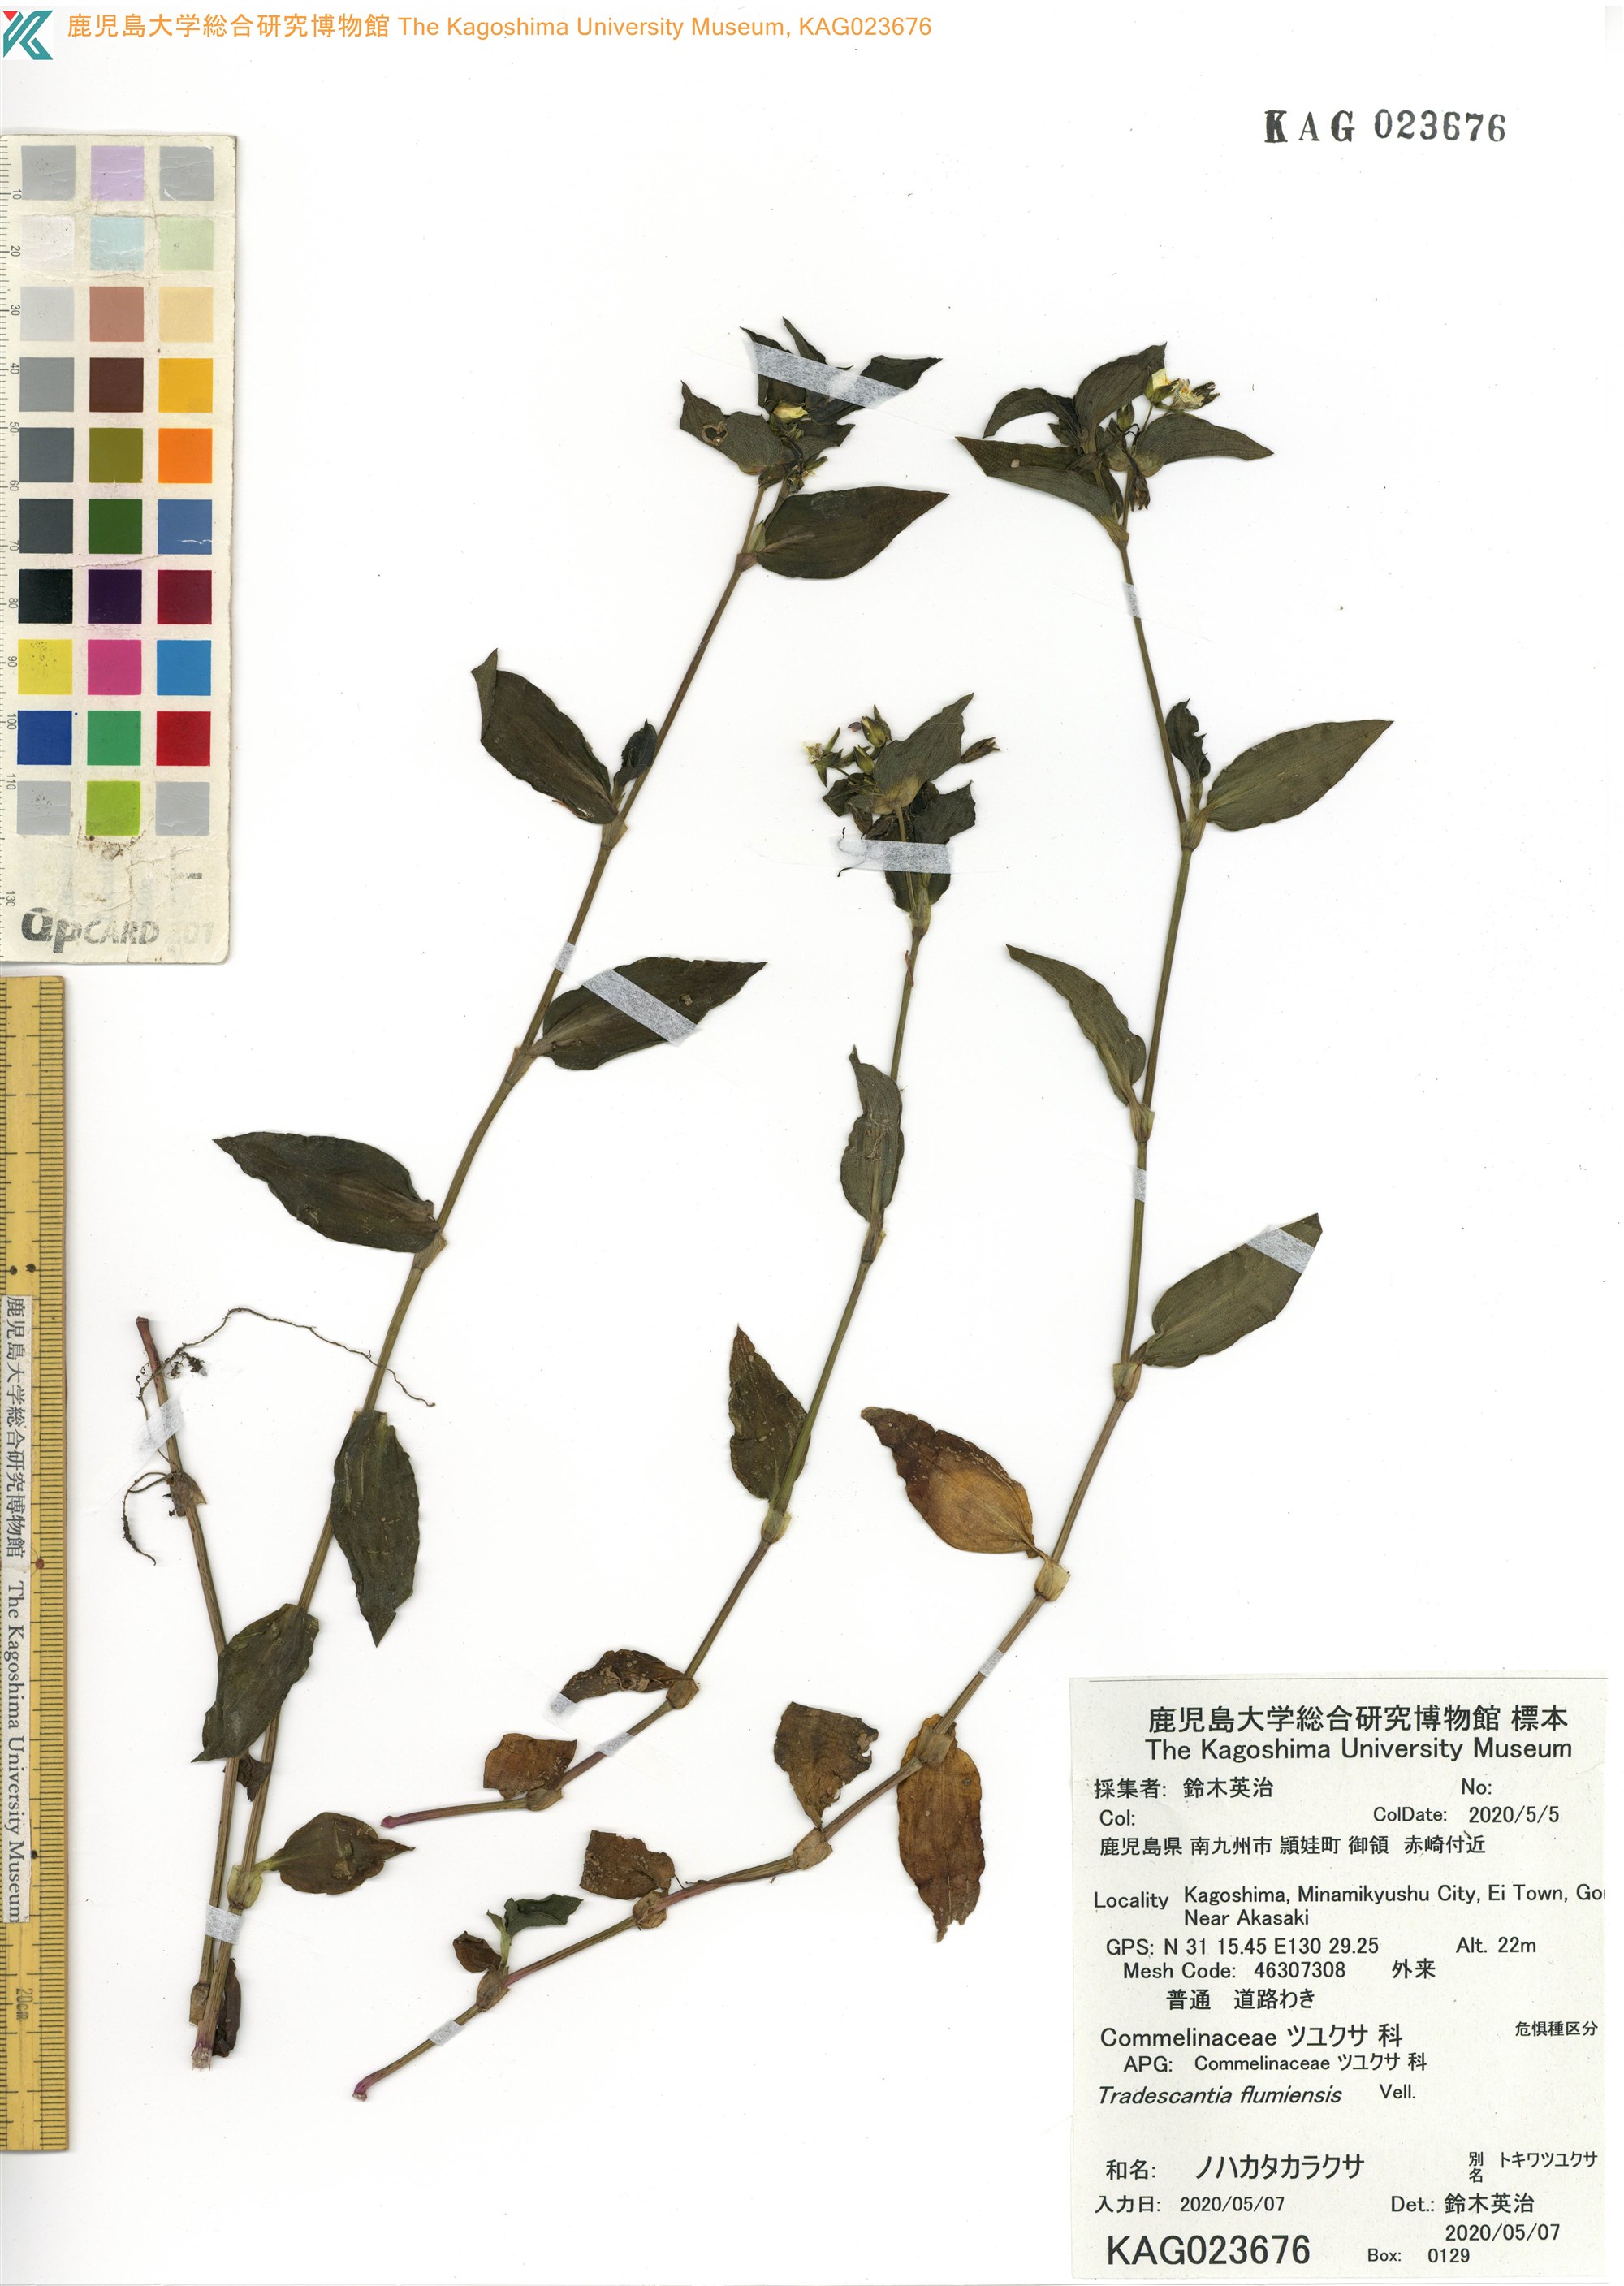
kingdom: Plantae
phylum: Tracheophyta
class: Liliopsida
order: Commelinales
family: Commelinaceae
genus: Tradescantia
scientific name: Tradescantia fluminensis
